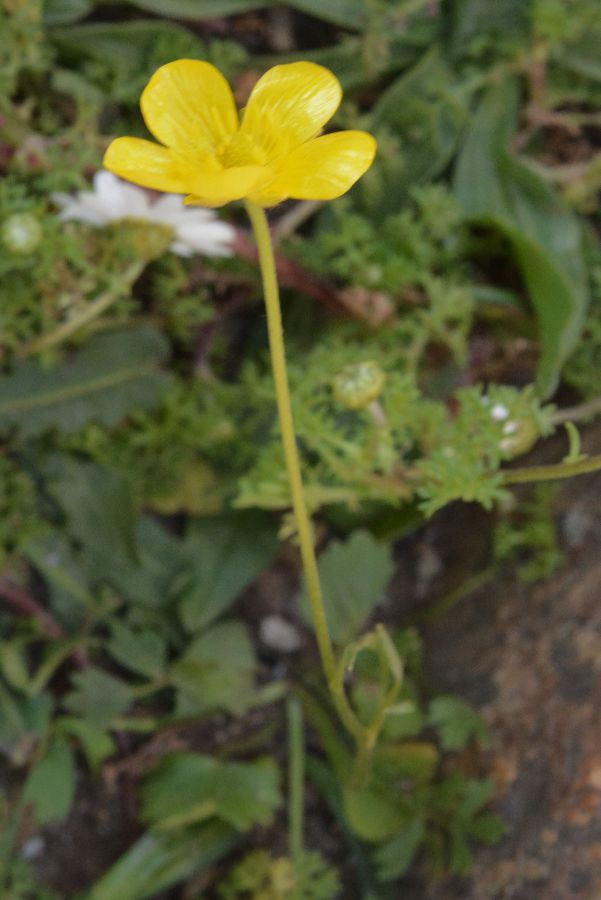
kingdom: Plantae
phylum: Tracheophyta
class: Magnoliopsida
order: Ranunculales
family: Ranunculaceae
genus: Ranunculus
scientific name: Ranunculus paludosus
